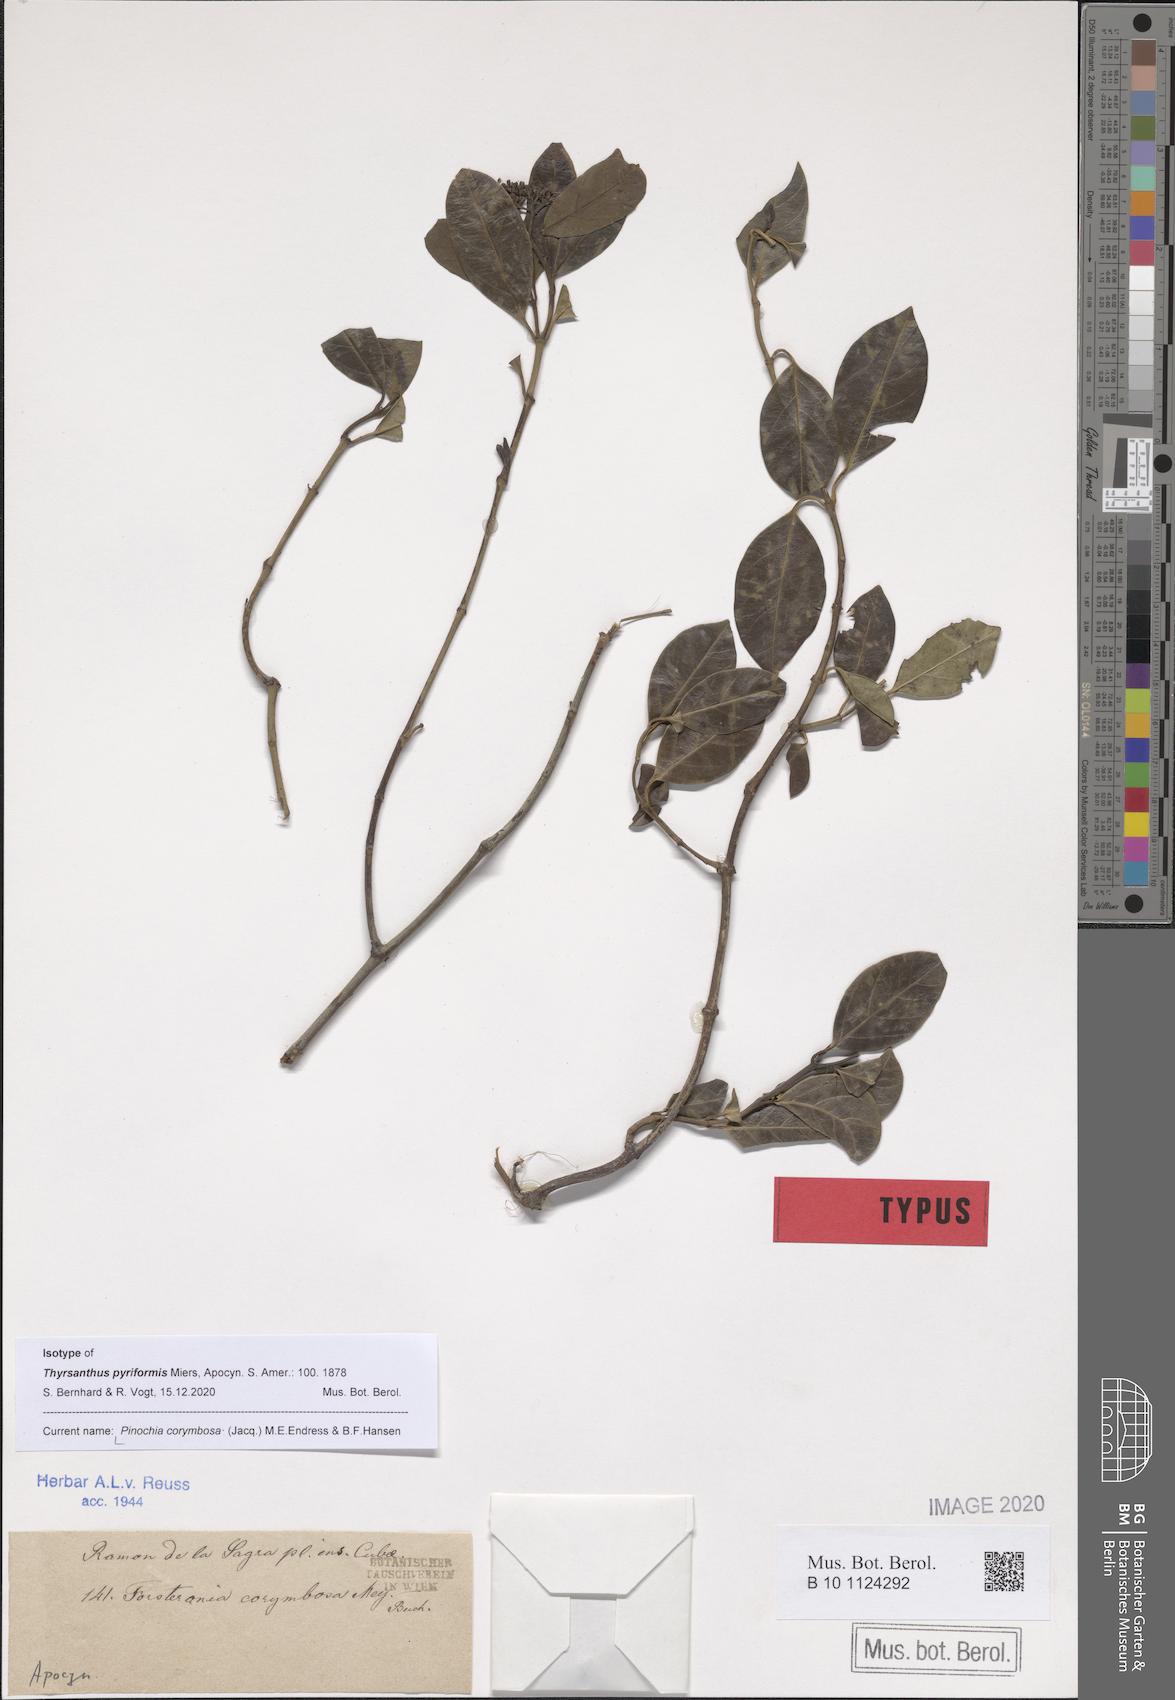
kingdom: Plantae
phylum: Tracheophyta
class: Magnoliopsida
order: Gentianales
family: Apocynaceae
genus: Pinochia
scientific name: Pinochia corymbosa
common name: Sanjuanera
